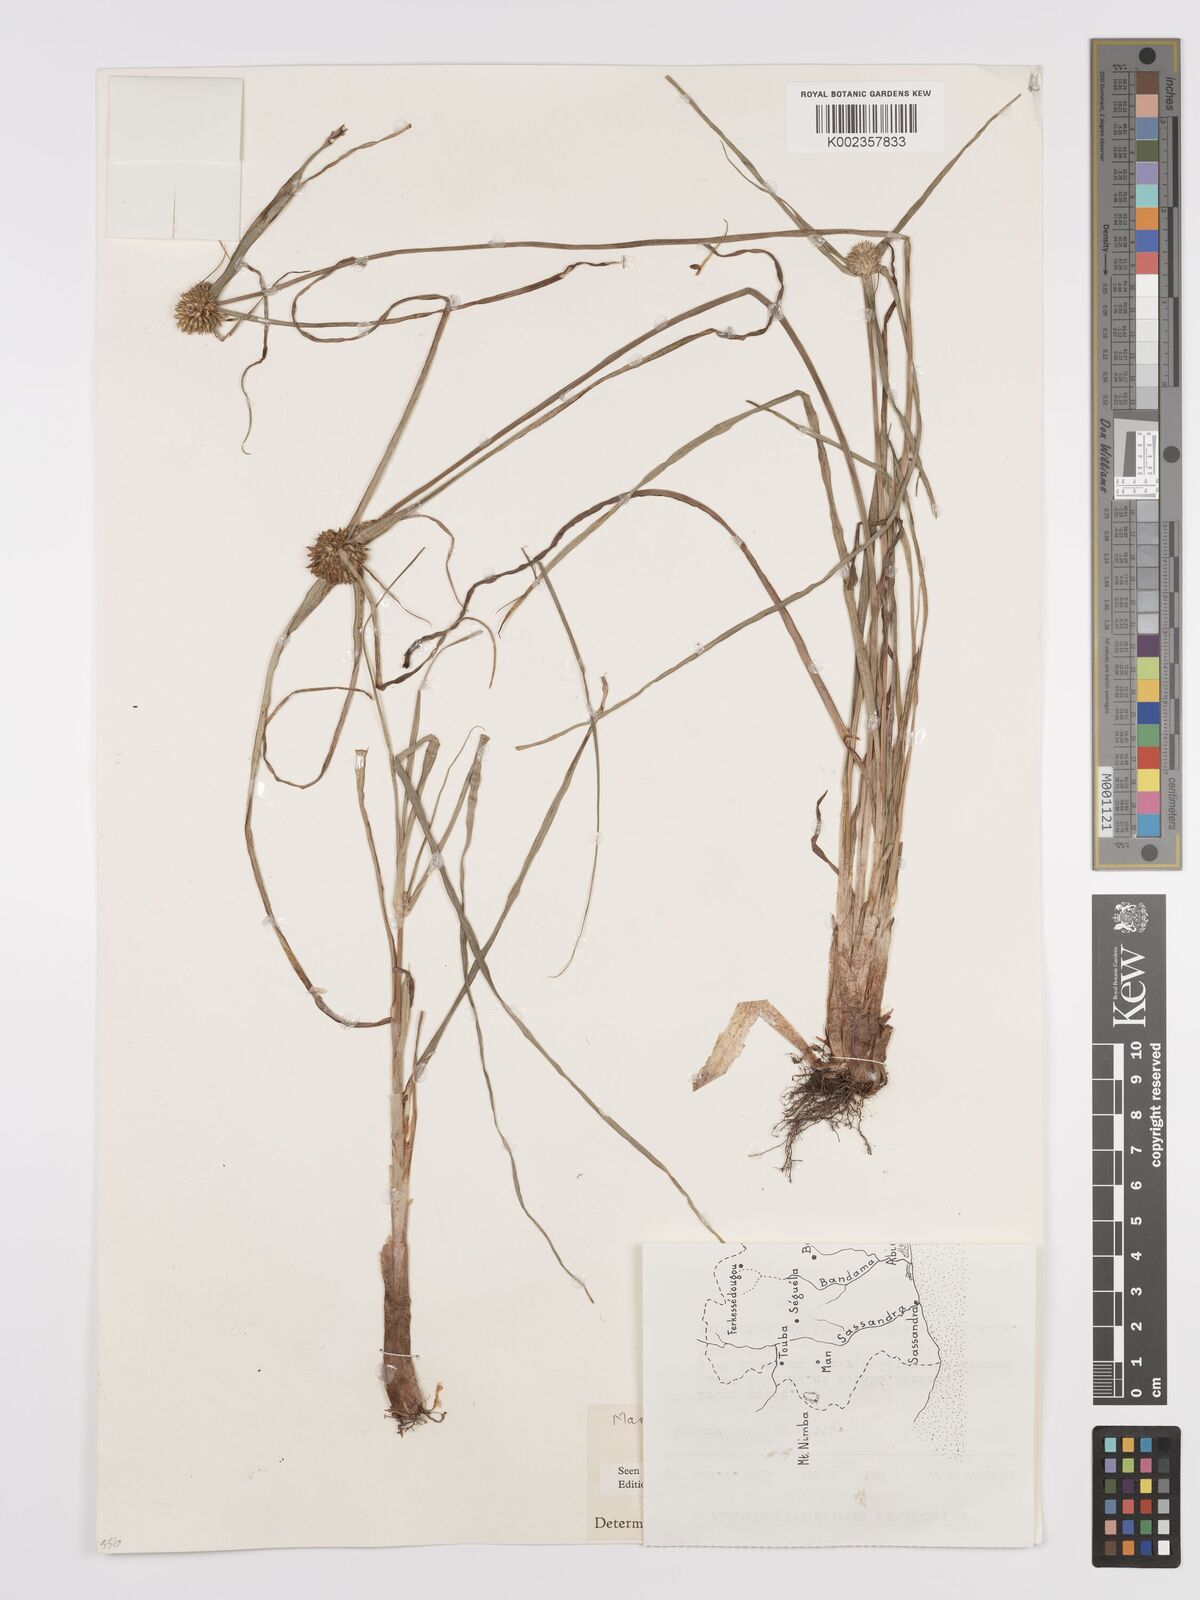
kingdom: Plantae
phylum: Tracheophyta
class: Liliopsida
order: Poales
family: Cyperaceae
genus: Cyperus
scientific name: Cyperus dubius
